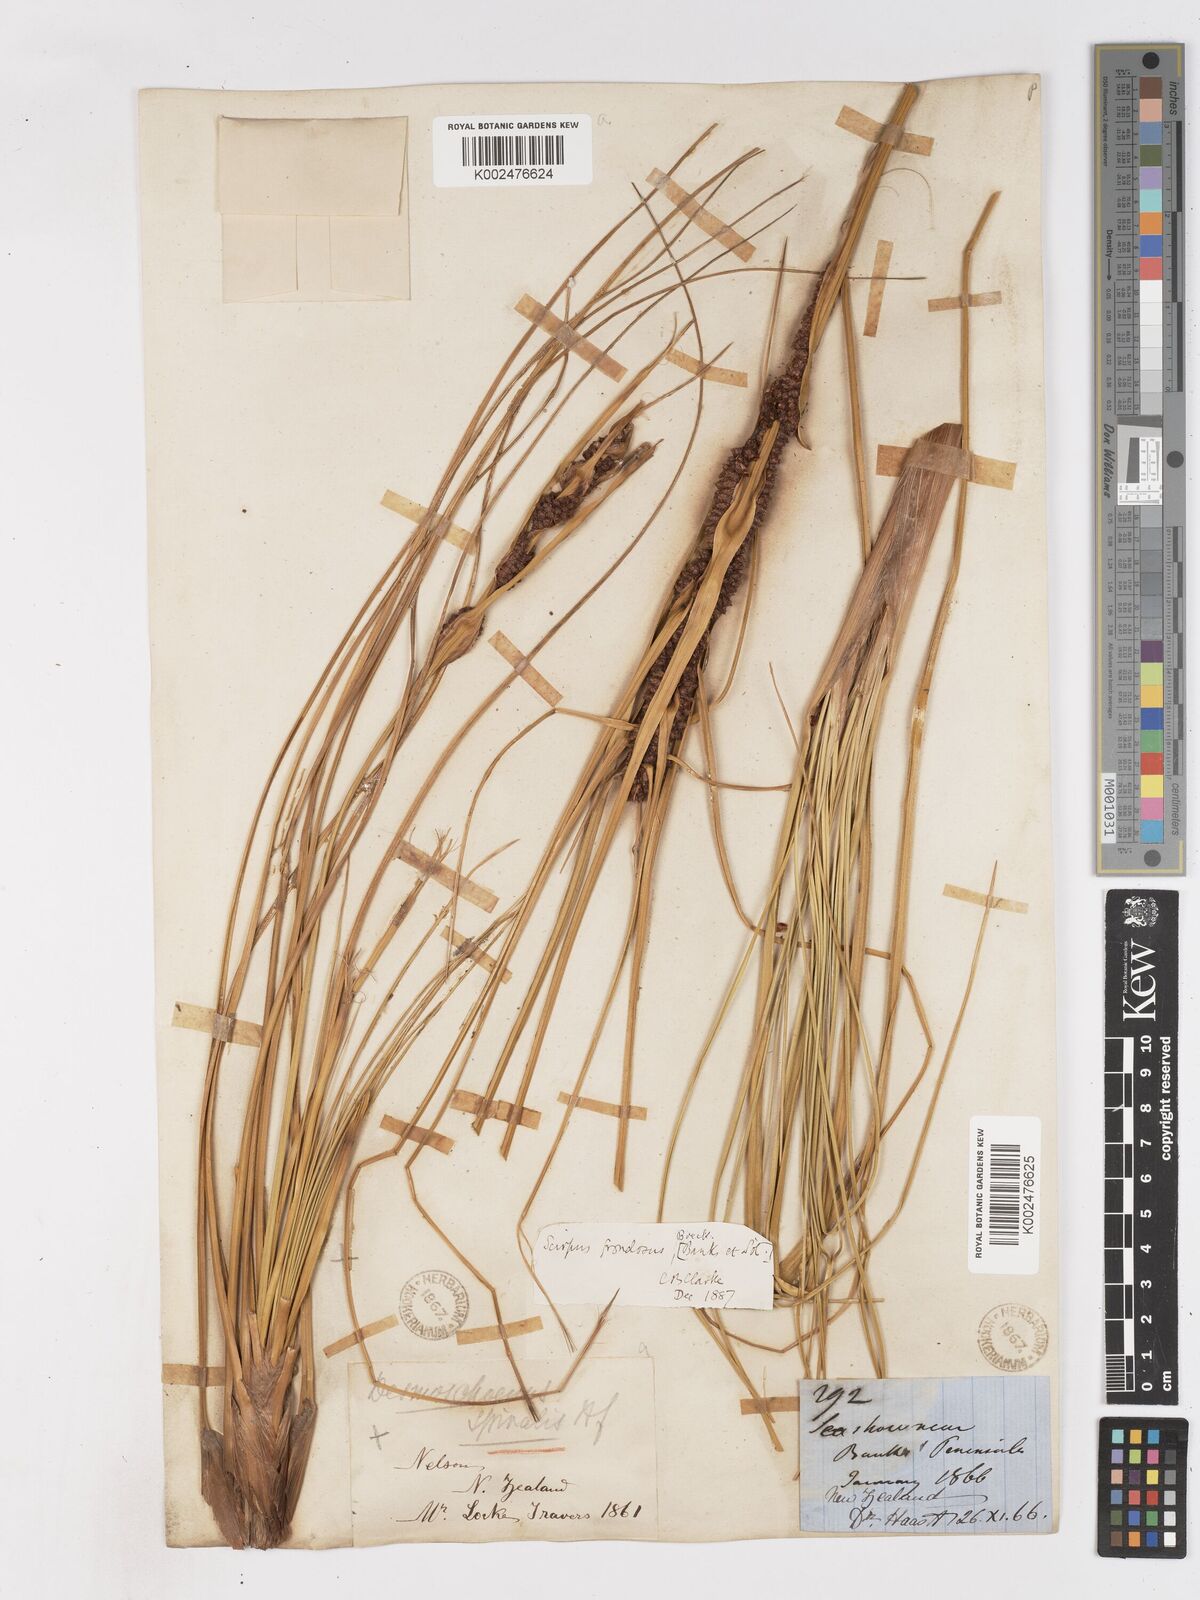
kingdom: Plantae
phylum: Tracheophyta
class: Liliopsida
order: Poales
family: Cyperaceae
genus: Ficinia
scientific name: Ficinia
